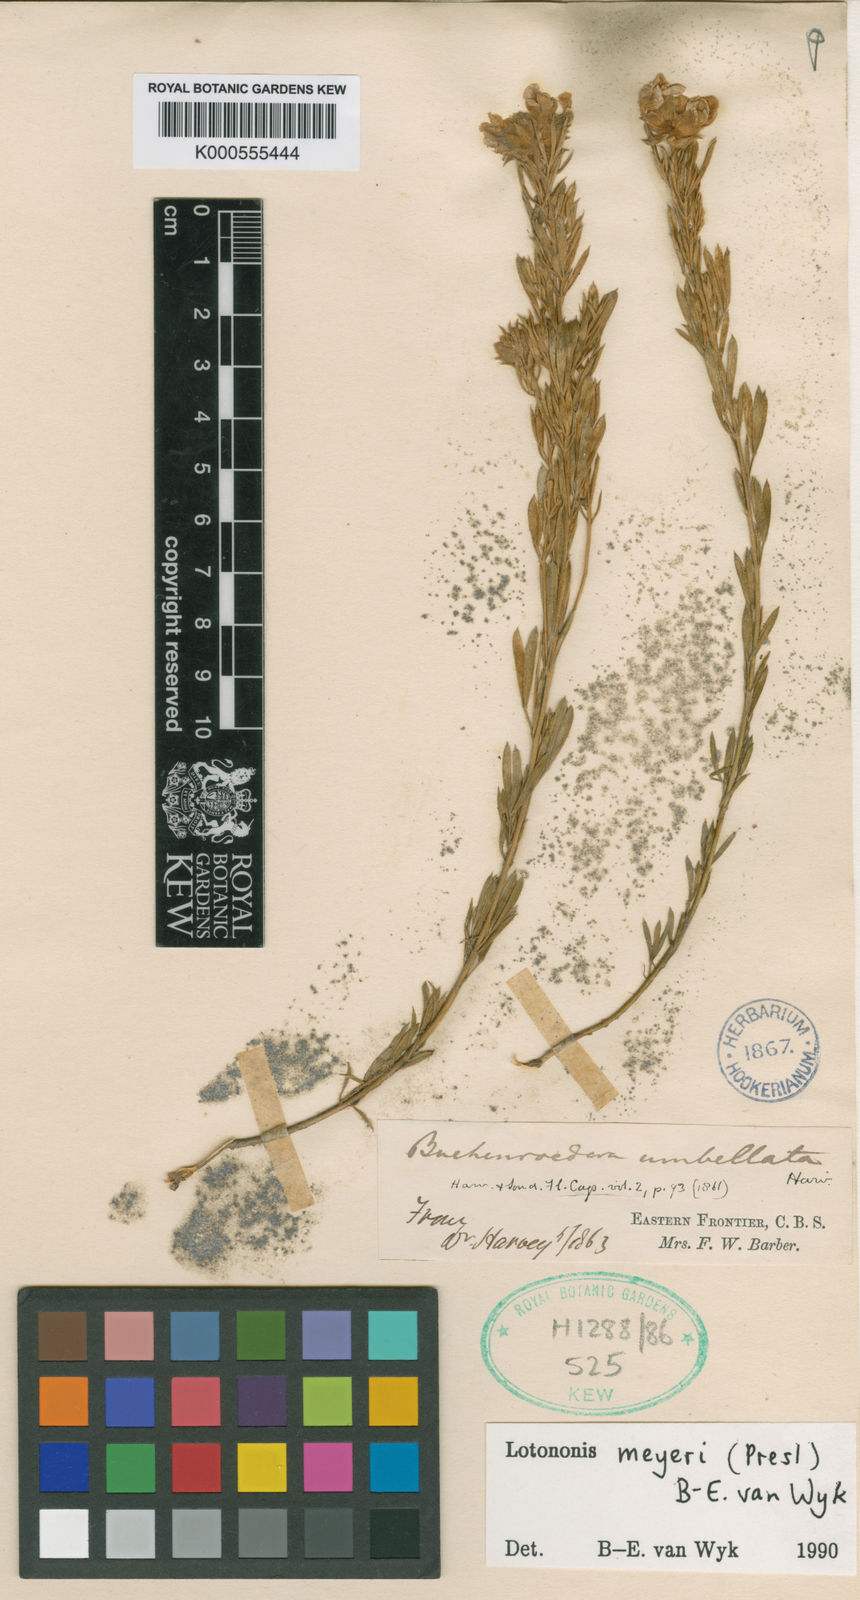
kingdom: Plantae
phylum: Tracheophyta
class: Magnoliopsida
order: Fabales
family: Fabaceae
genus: Lotononis
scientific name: Lotononis meyeri
